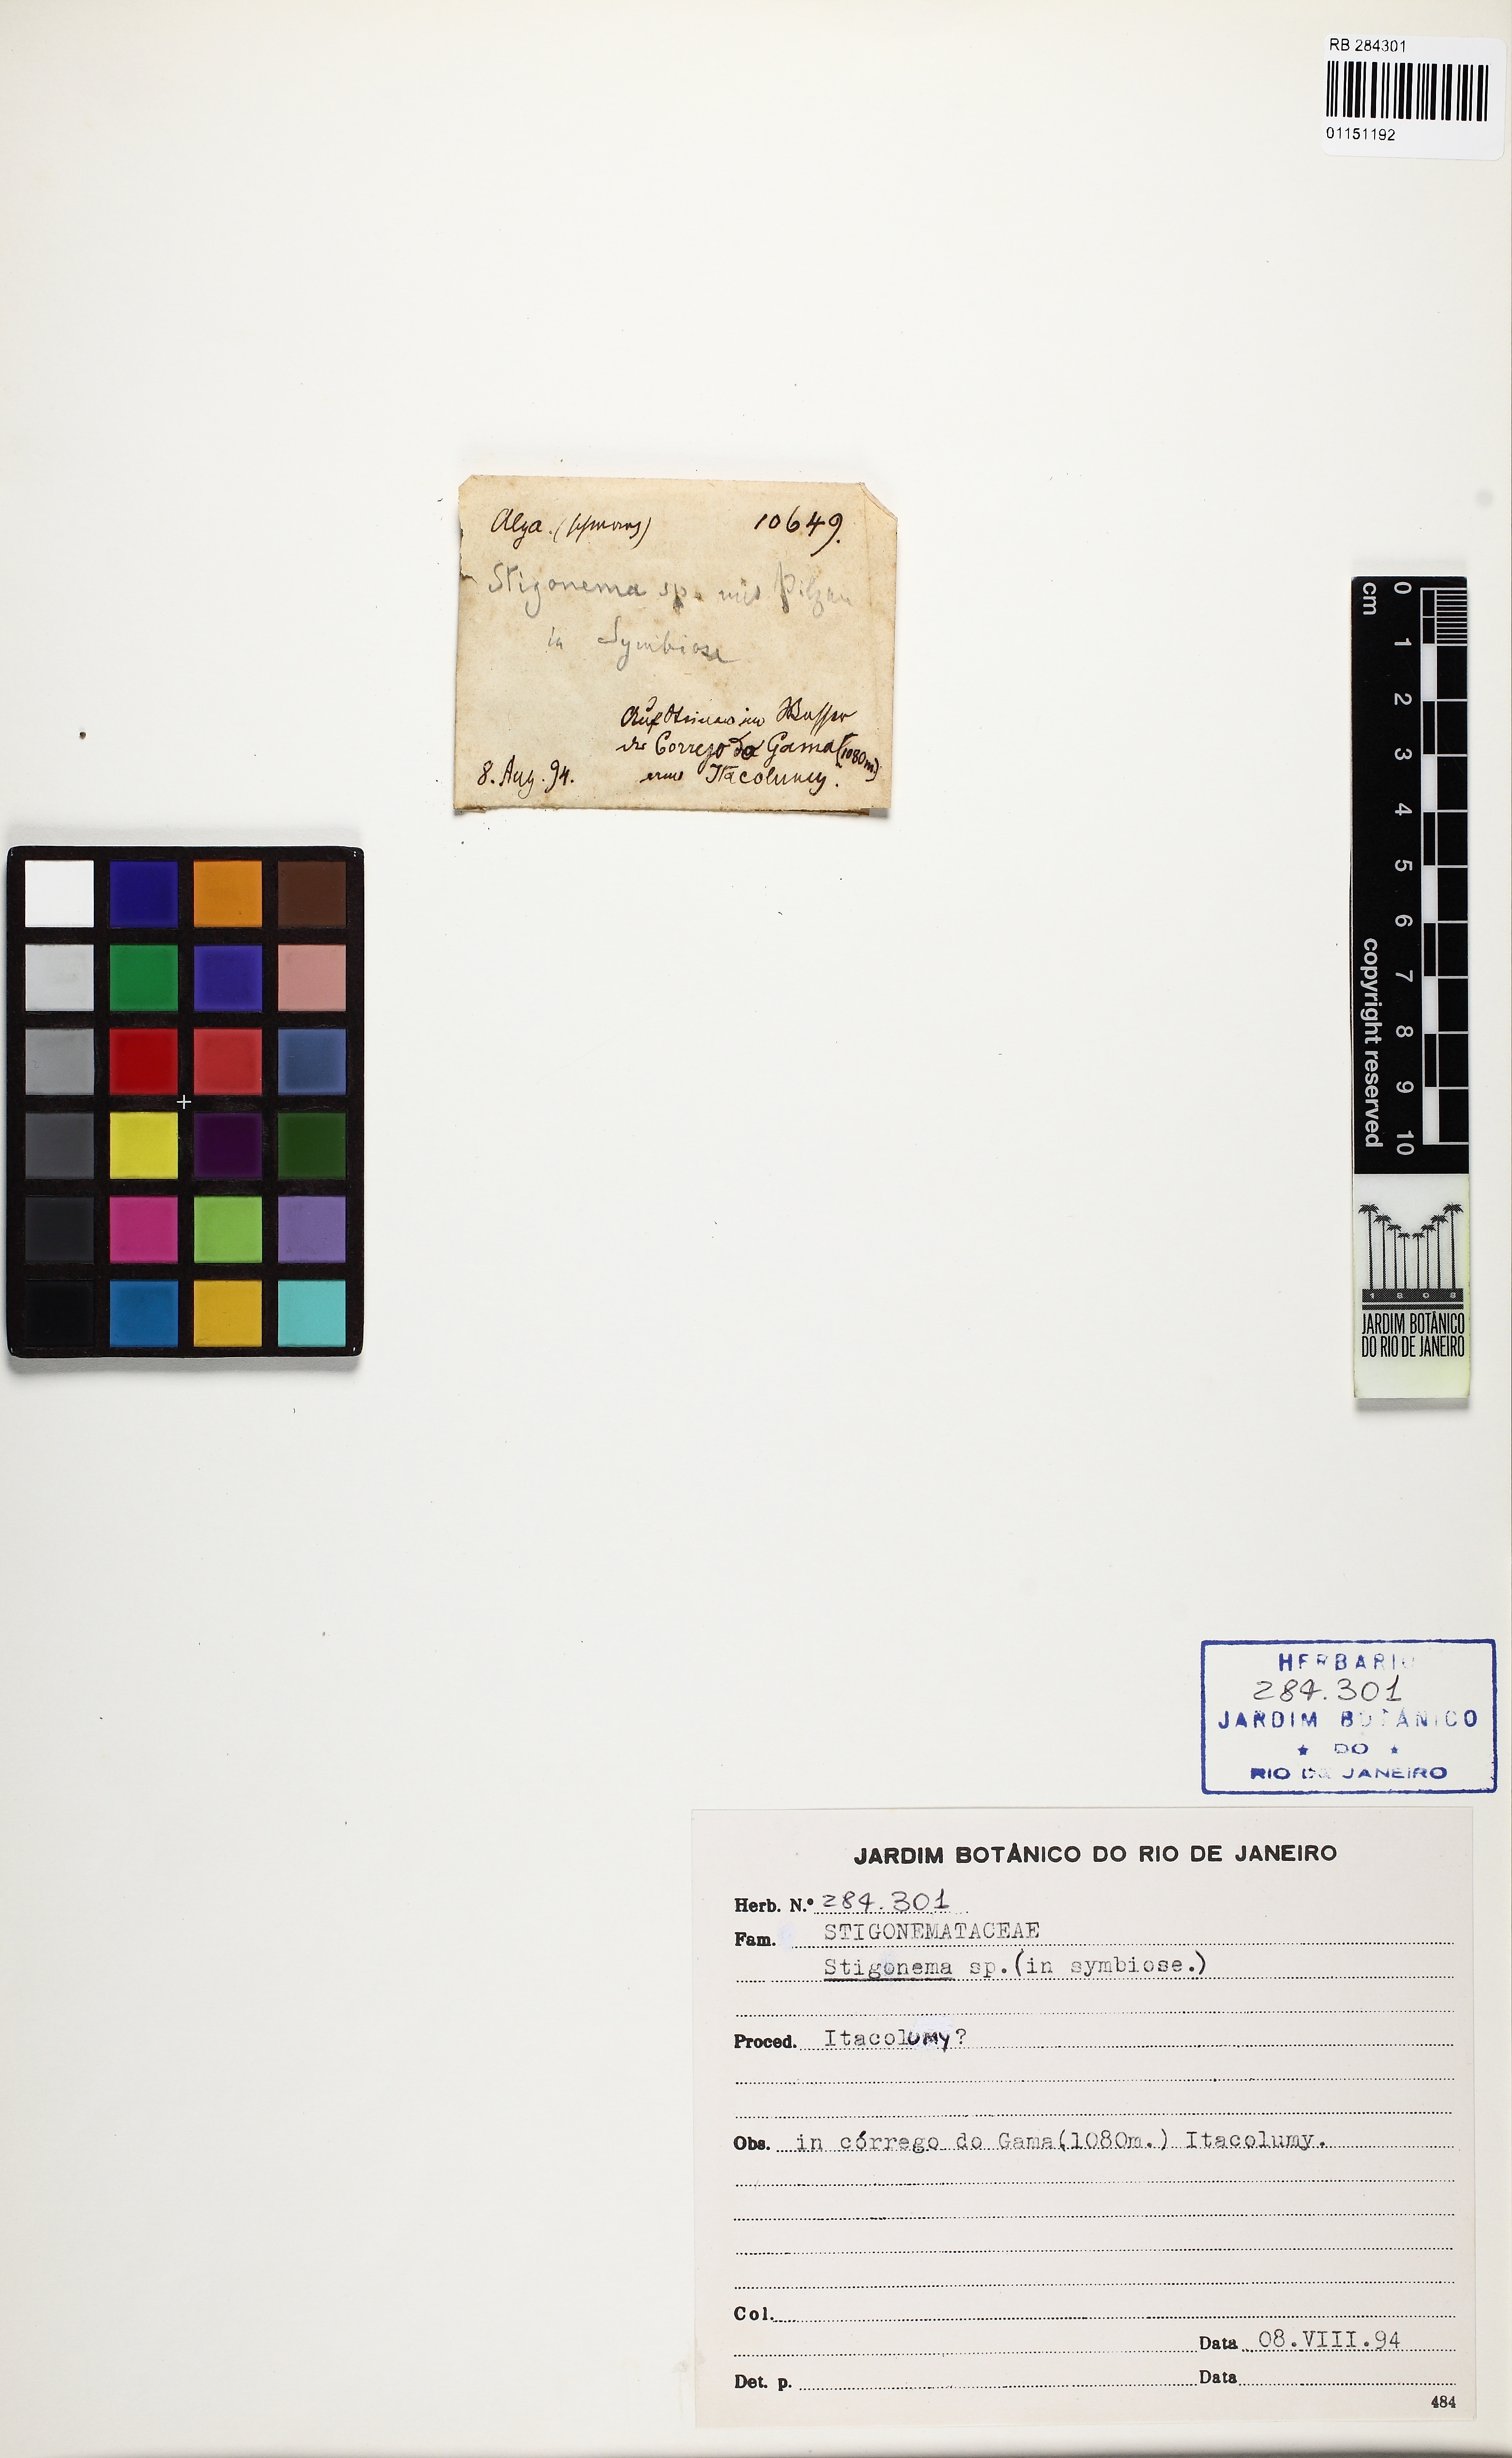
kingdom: Bacteria
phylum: Cyanobacteria
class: Cyanobacteriia
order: Cyanobacteriales
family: Nostocaceae
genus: Stigonema
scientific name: Stigonema
